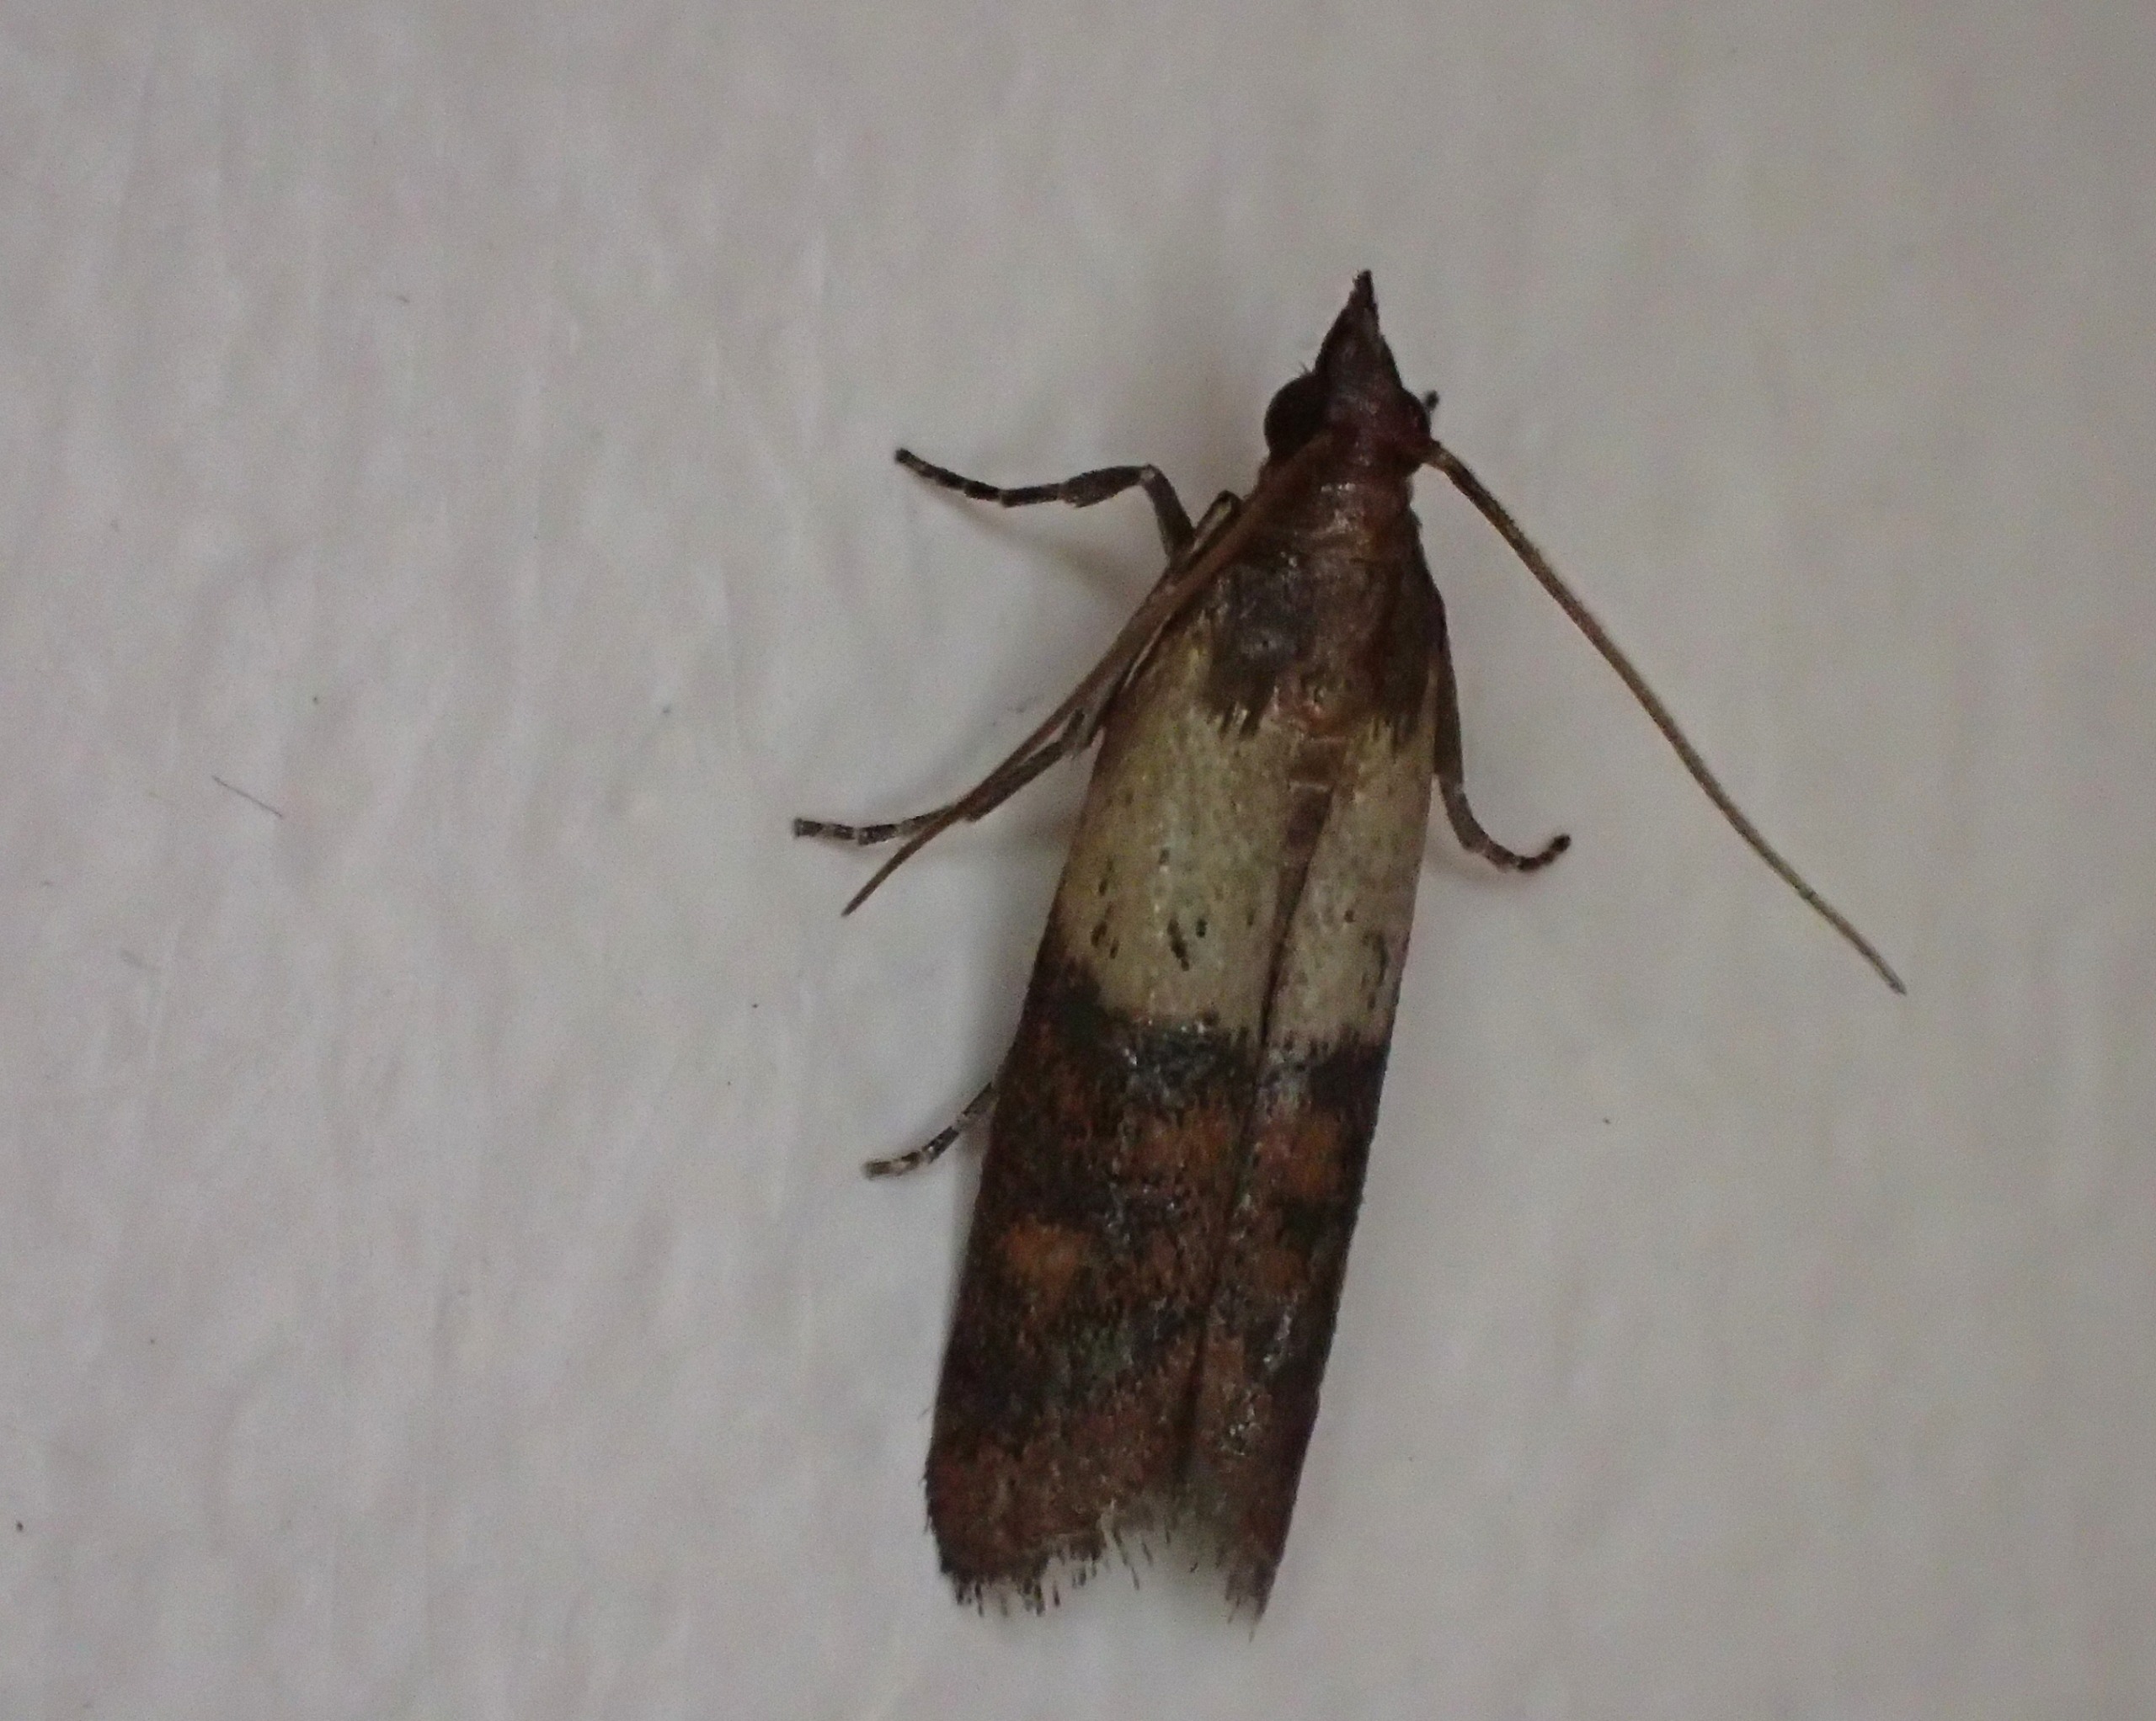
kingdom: Animalia
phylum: Arthropoda
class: Insecta
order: Lepidoptera
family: Pyralidae
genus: Plodia
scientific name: Plodia interpunctella
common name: Tofarvet frømøl
